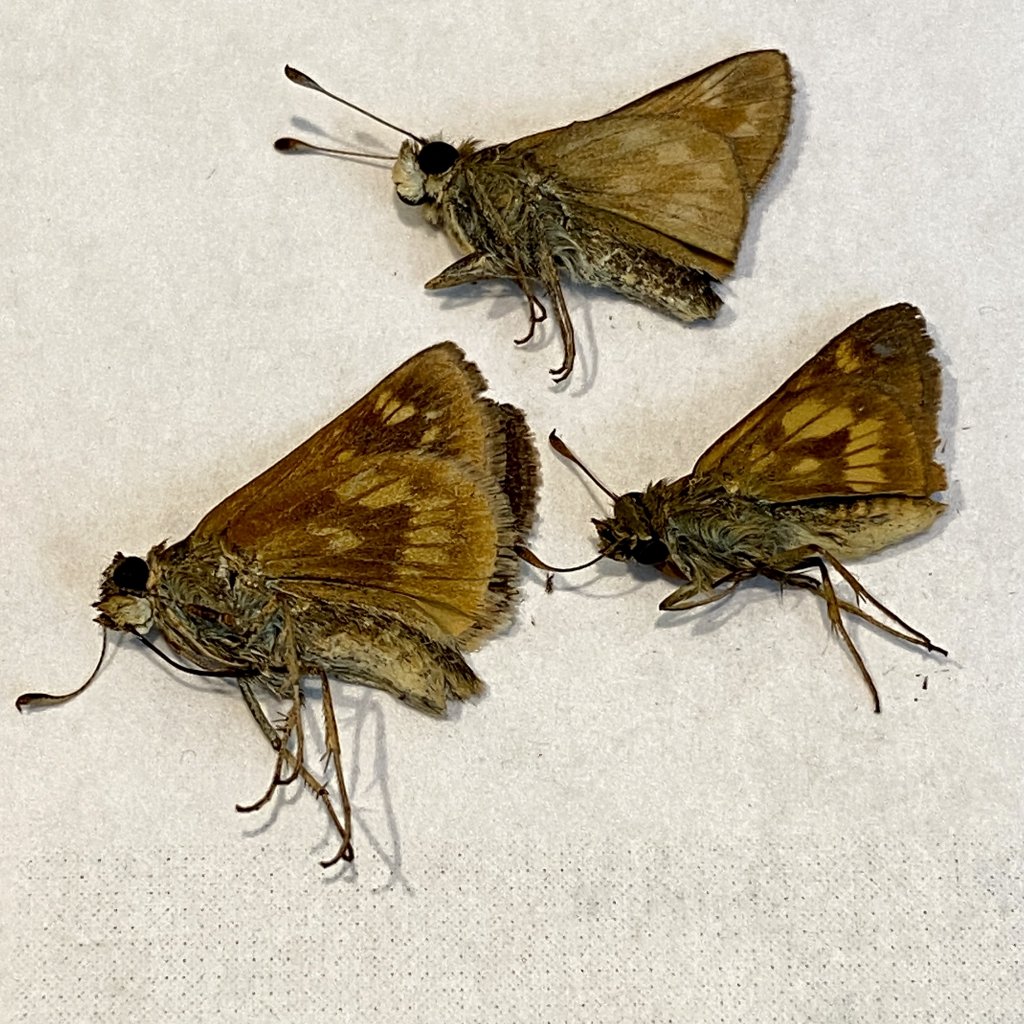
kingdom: Animalia
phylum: Arthropoda
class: Insecta
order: Lepidoptera
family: Hesperiidae
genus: Polites
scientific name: Polites
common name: Long Dash Skipper
